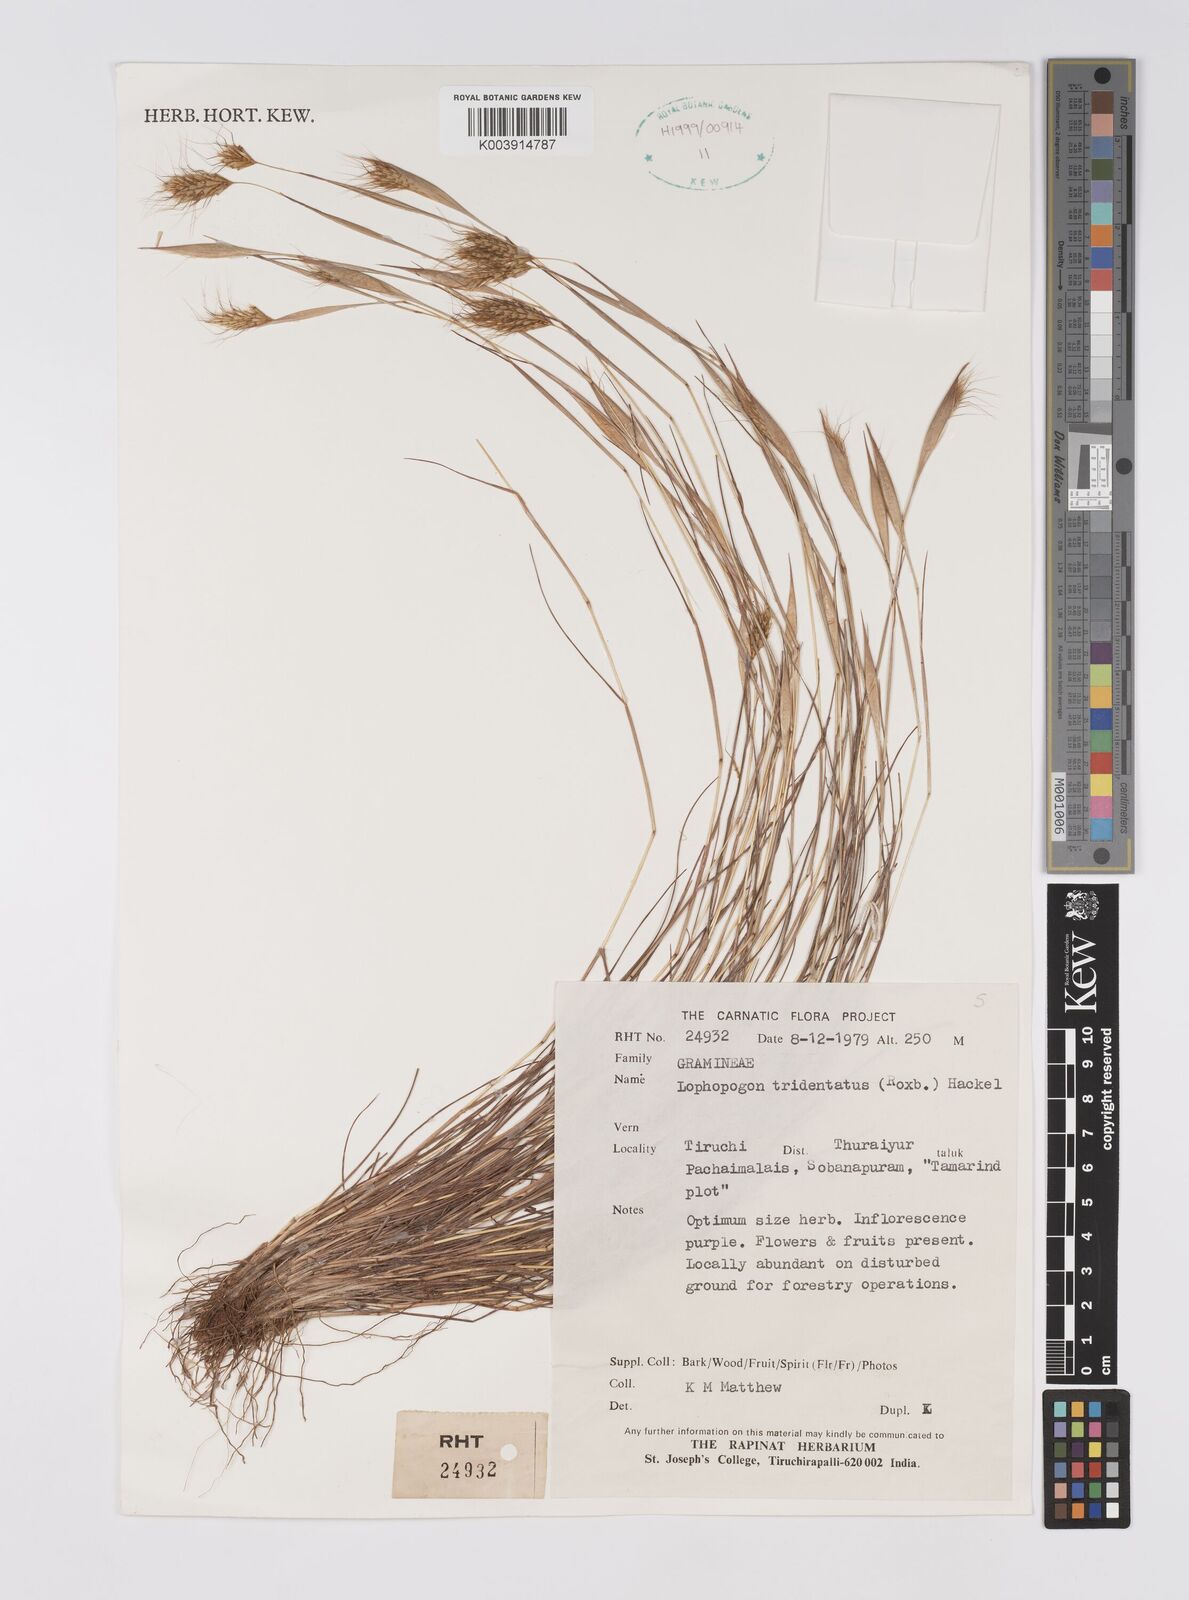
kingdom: Plantae
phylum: Tracheophyta
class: Liliopsida
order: Poales
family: Poaceae
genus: Lophopogon
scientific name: Lophopogon tridentatus
